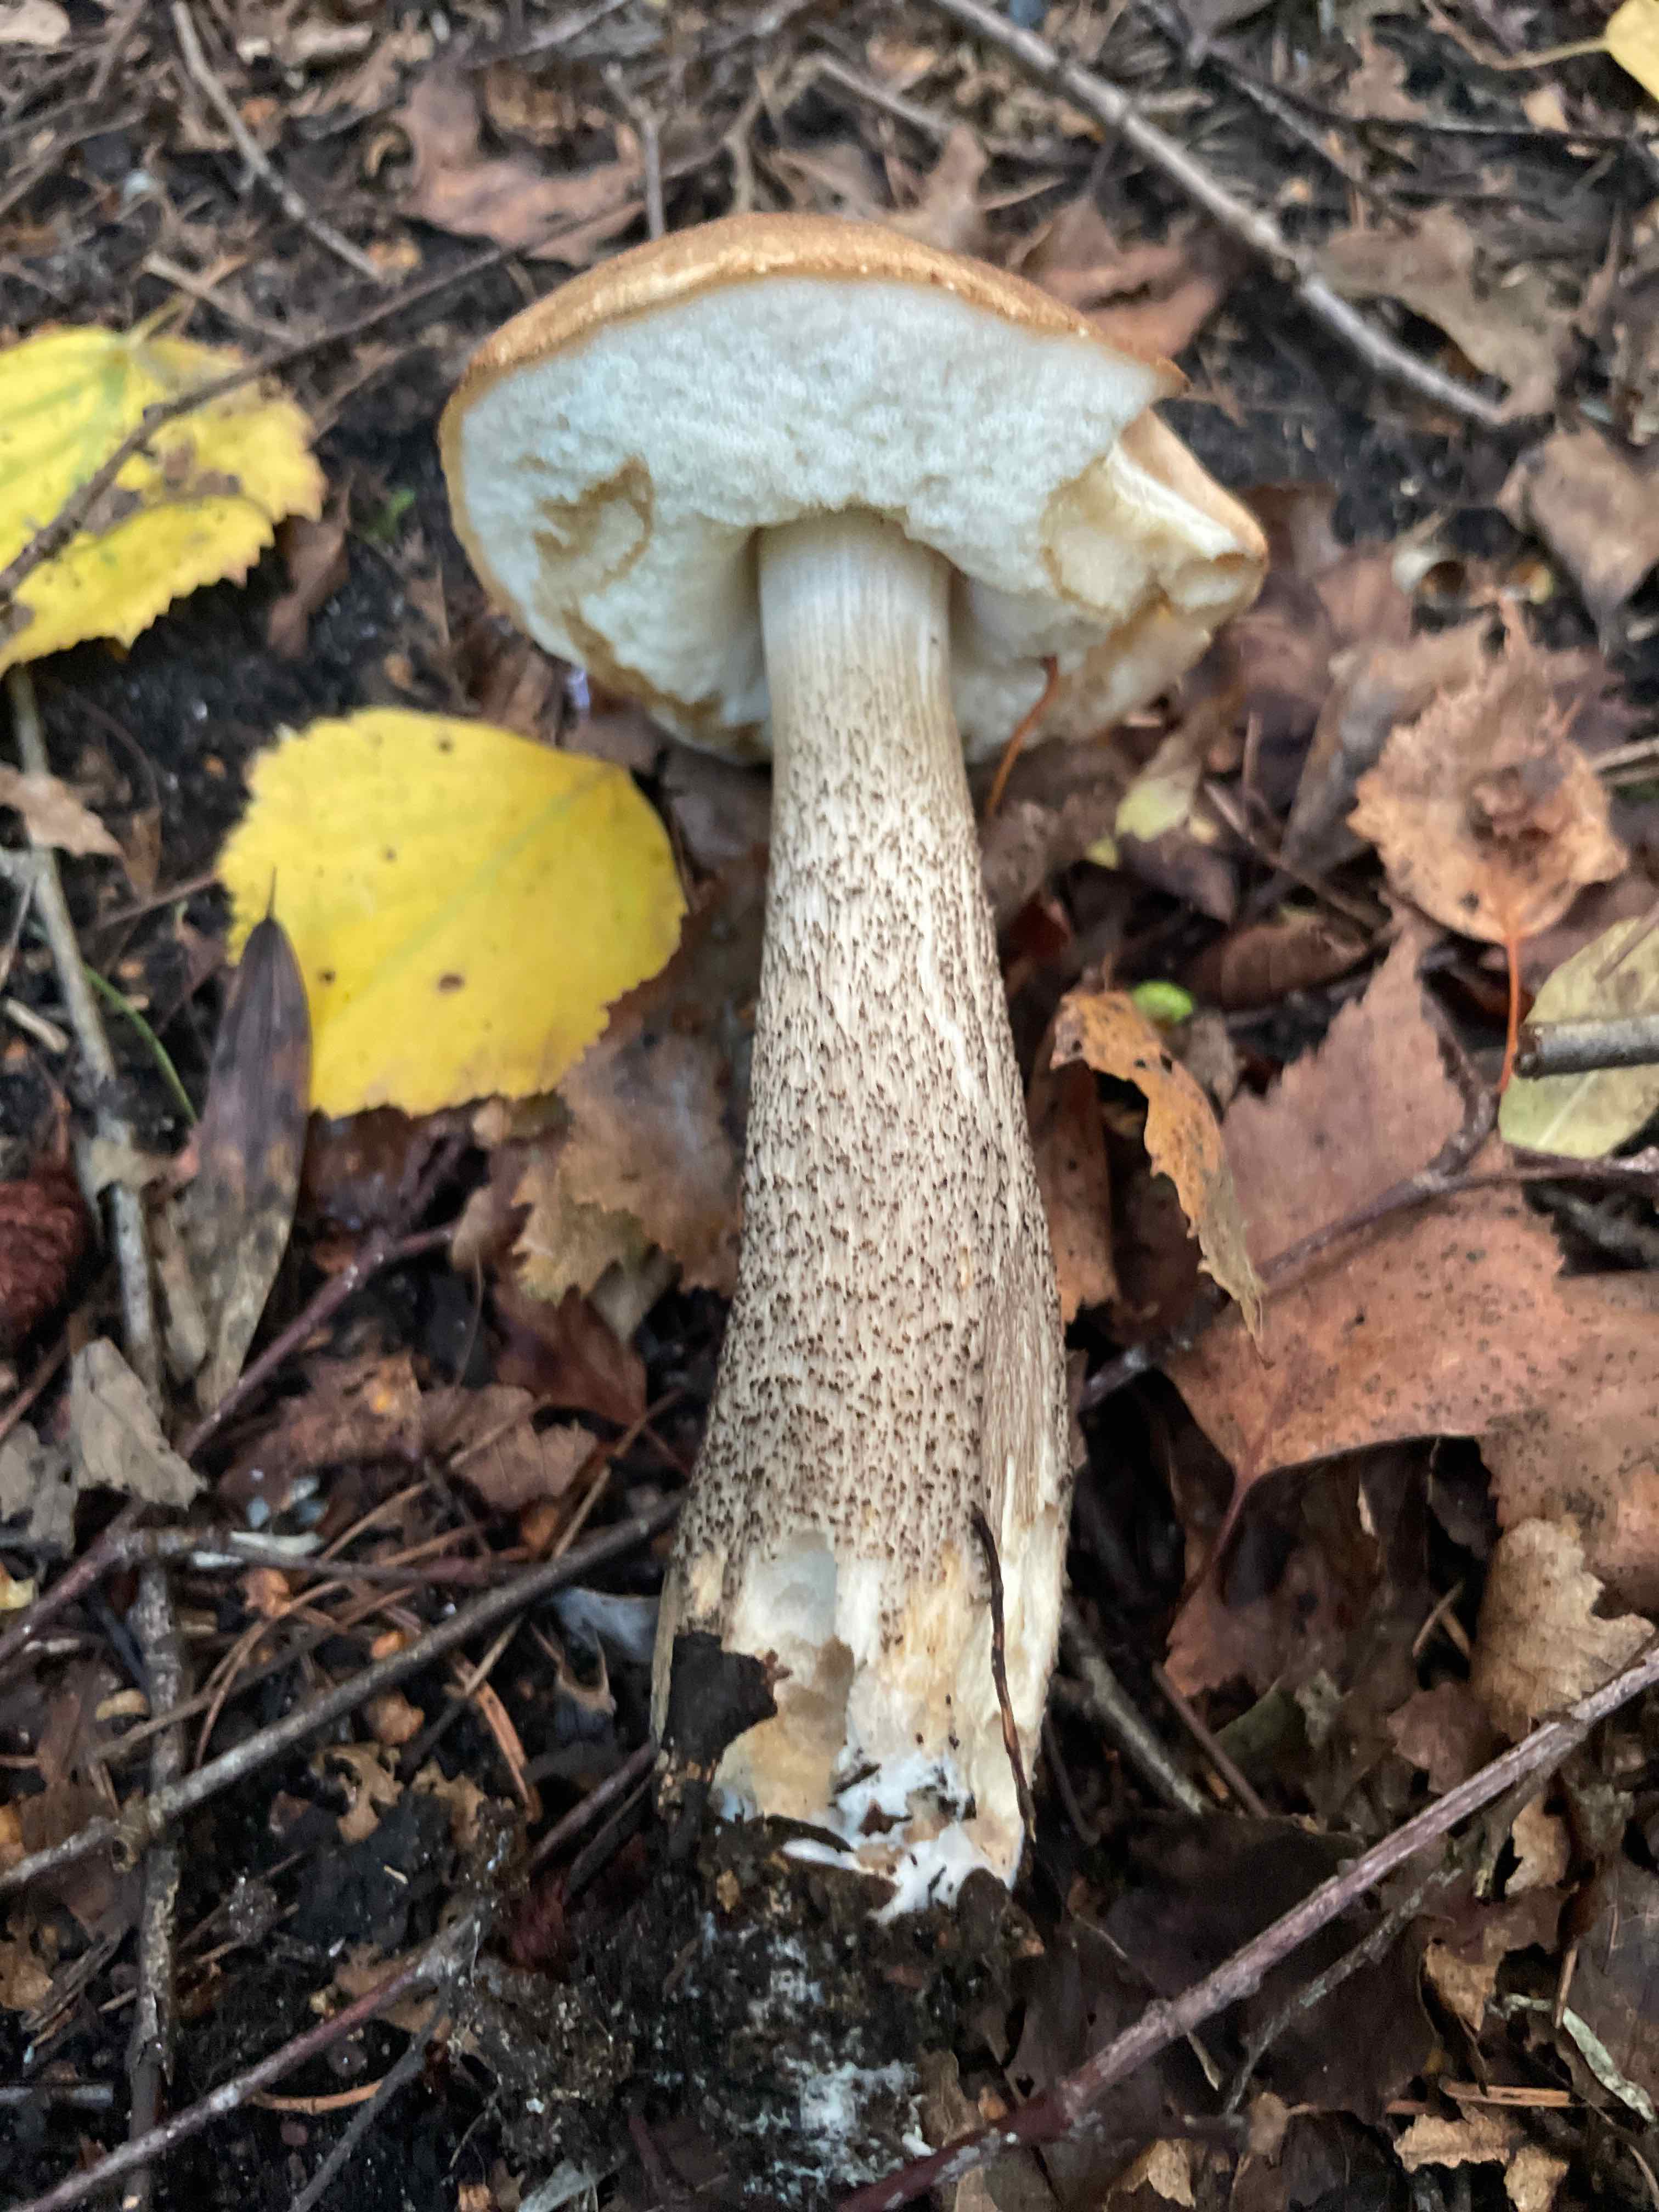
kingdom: Fungi
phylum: Basidiomycota
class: Agaricomycetes
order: Boletales
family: Boletaceae
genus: Leccinum
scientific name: Leccinum
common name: skælrørhat
